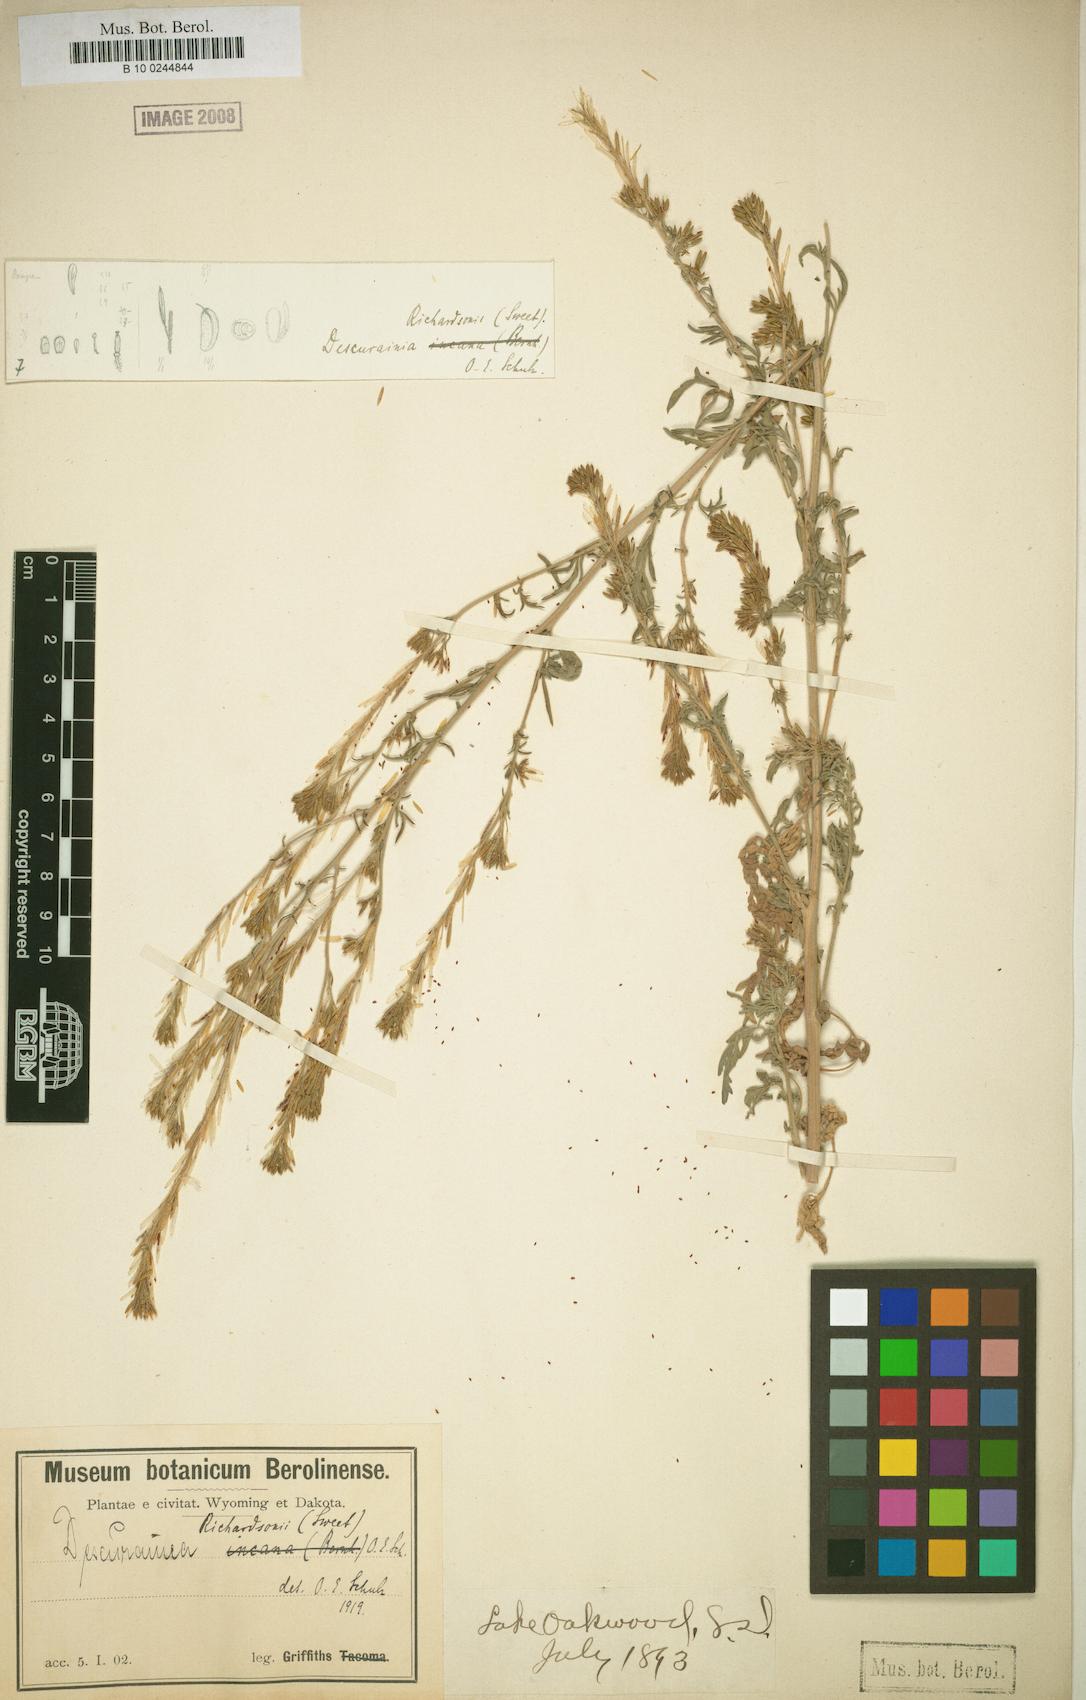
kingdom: Plantae
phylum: Tracheophyta
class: Magnoliopsida
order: Brassicales
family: Brassicaceae
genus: Descurainia
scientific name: Descurainia richardsonii
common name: Western tansy-mustard
